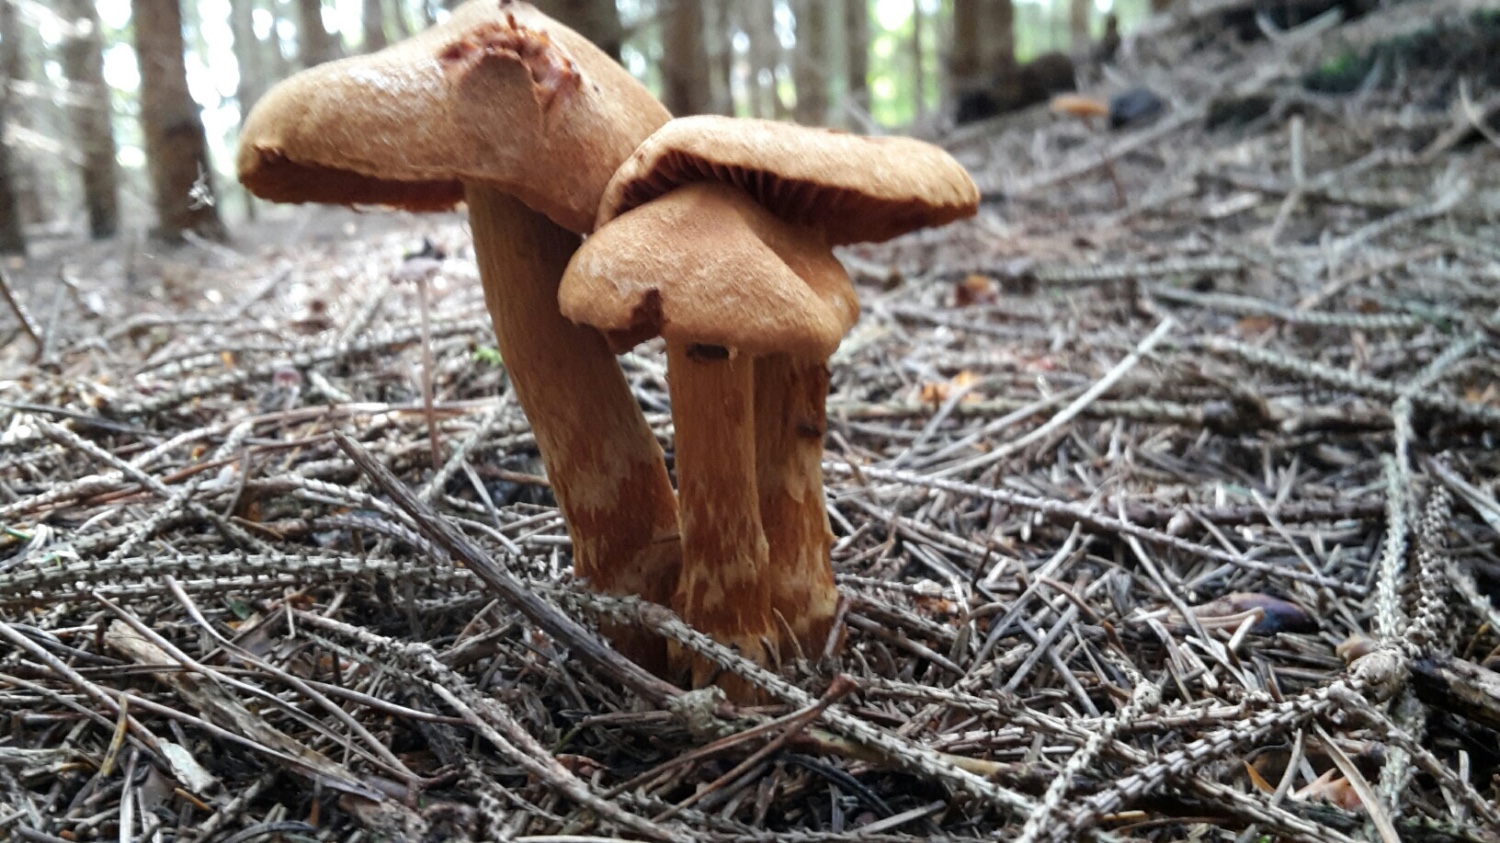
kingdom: Fungi
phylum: Basidiomycota
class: Agaricomycetes
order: Agaricales
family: Cortinariaceae
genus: Cortinarius
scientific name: Cortinarius rubellus
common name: puklet gift-slørhat
